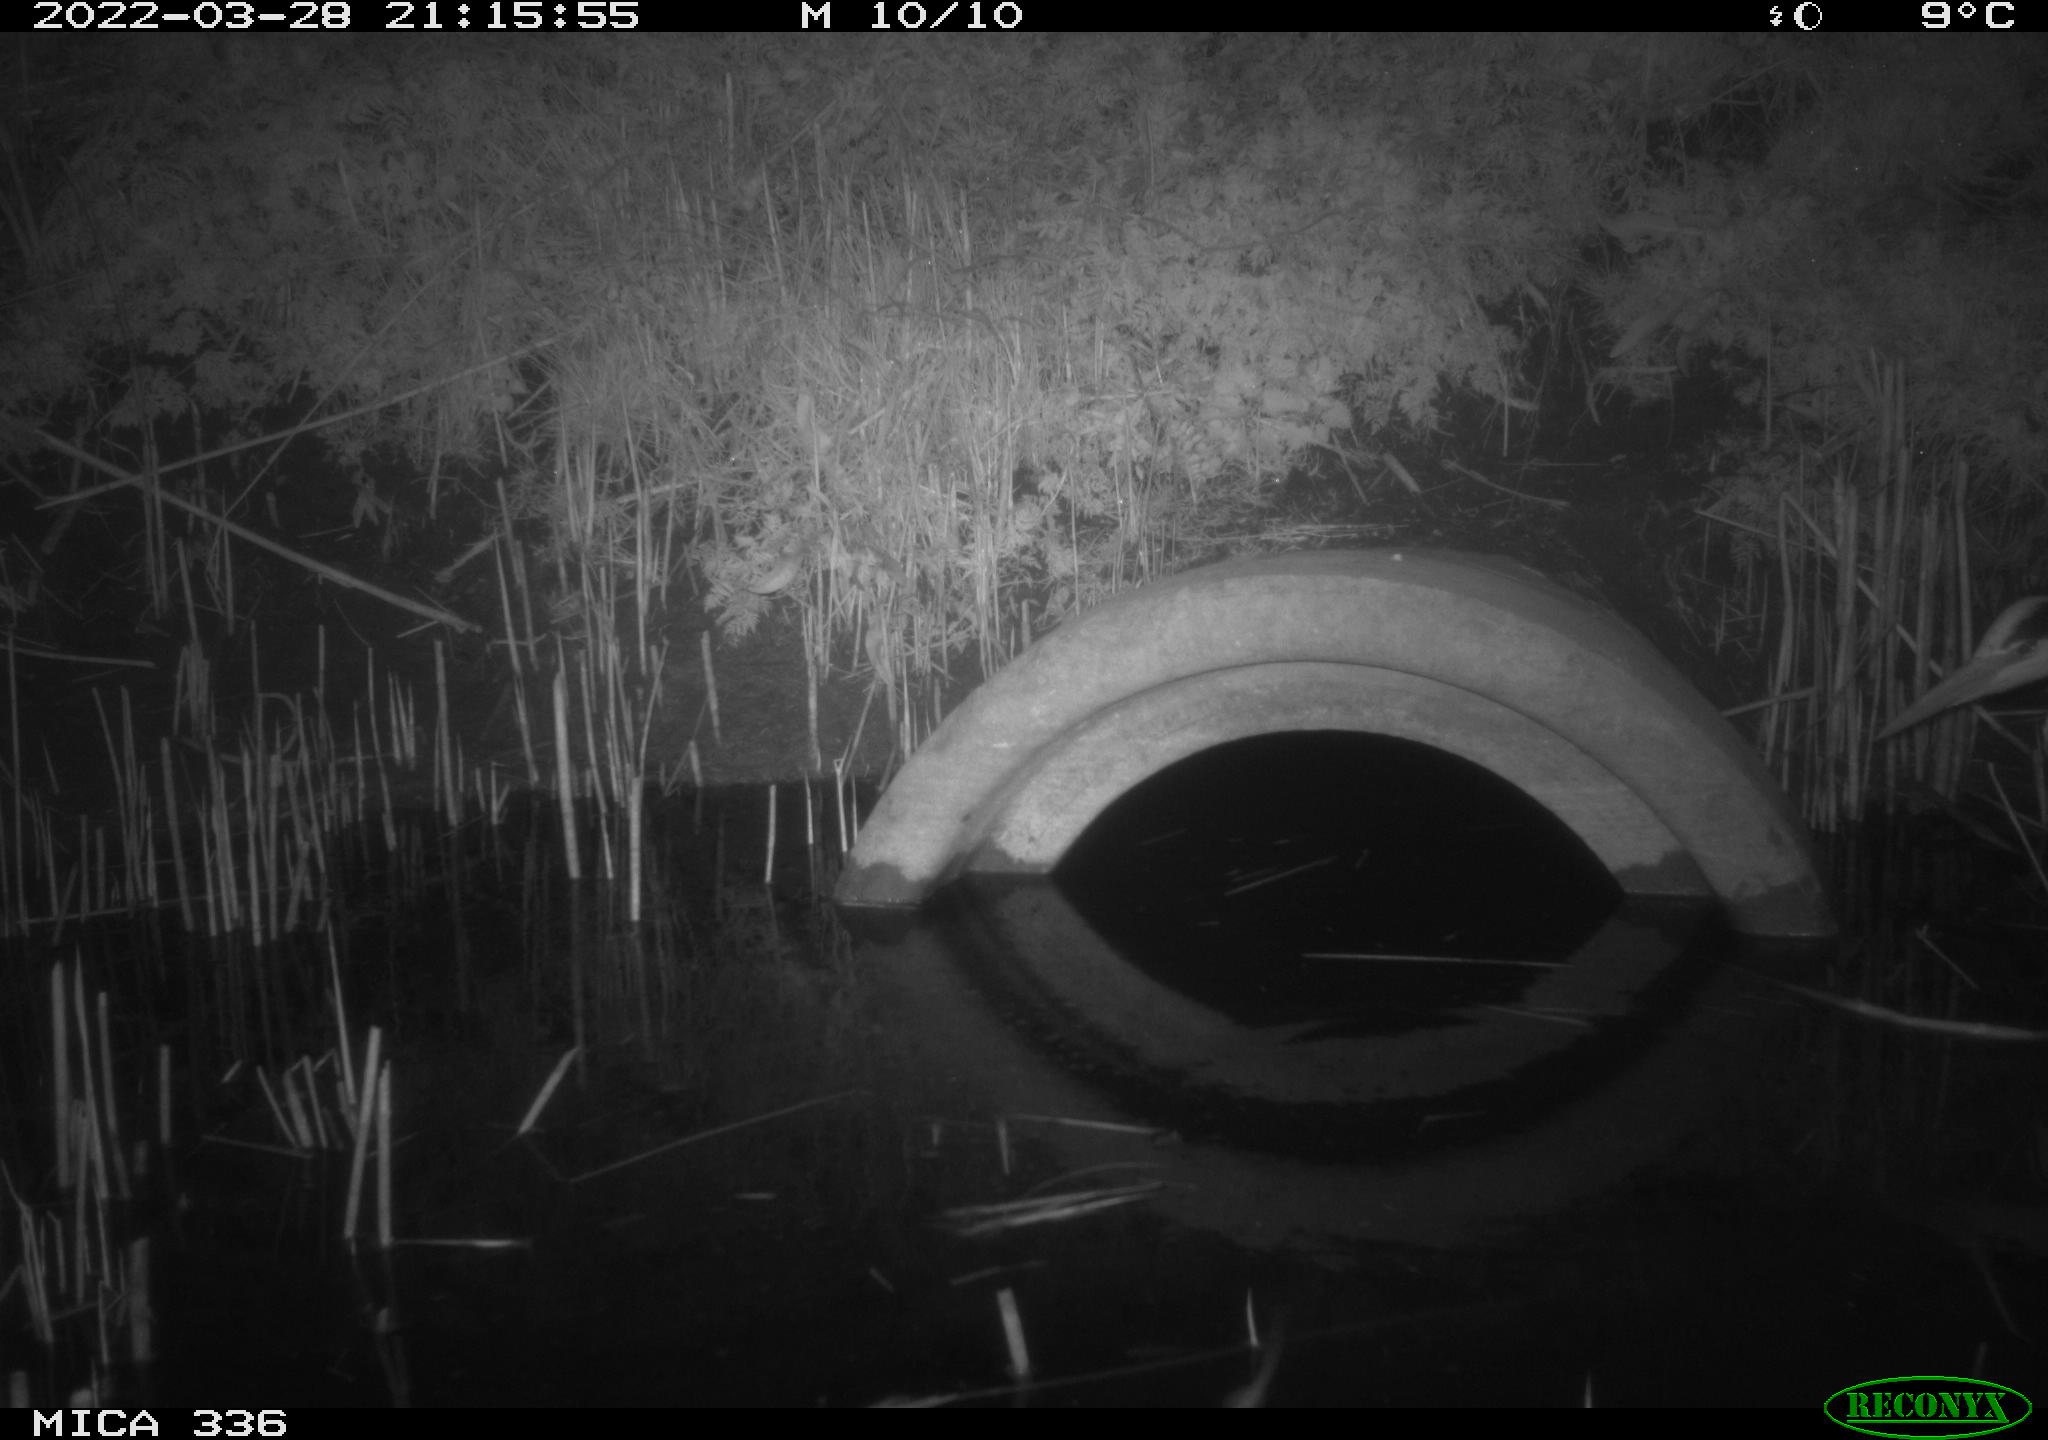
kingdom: Animalia
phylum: Chordata
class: Aves
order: Pelecaniformes
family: Ardeidae
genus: Ardea
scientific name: Ardea cinerea
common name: Grey heron
